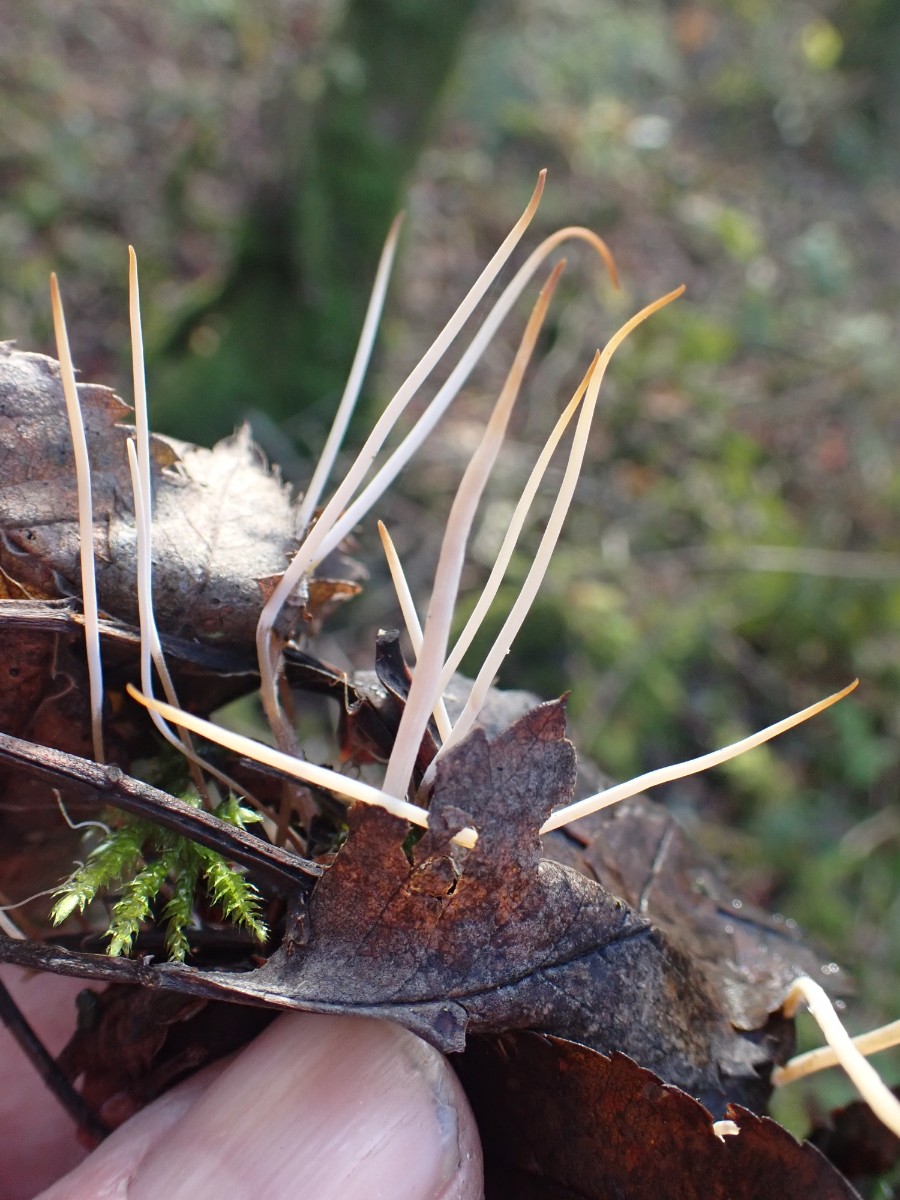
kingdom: Fungi
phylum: Basidiomycota
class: Agaricomycetes
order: Agaricales
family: Typhulaceae
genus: Typhula
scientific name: Typhula juncea
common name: trådagtig rørkølle
